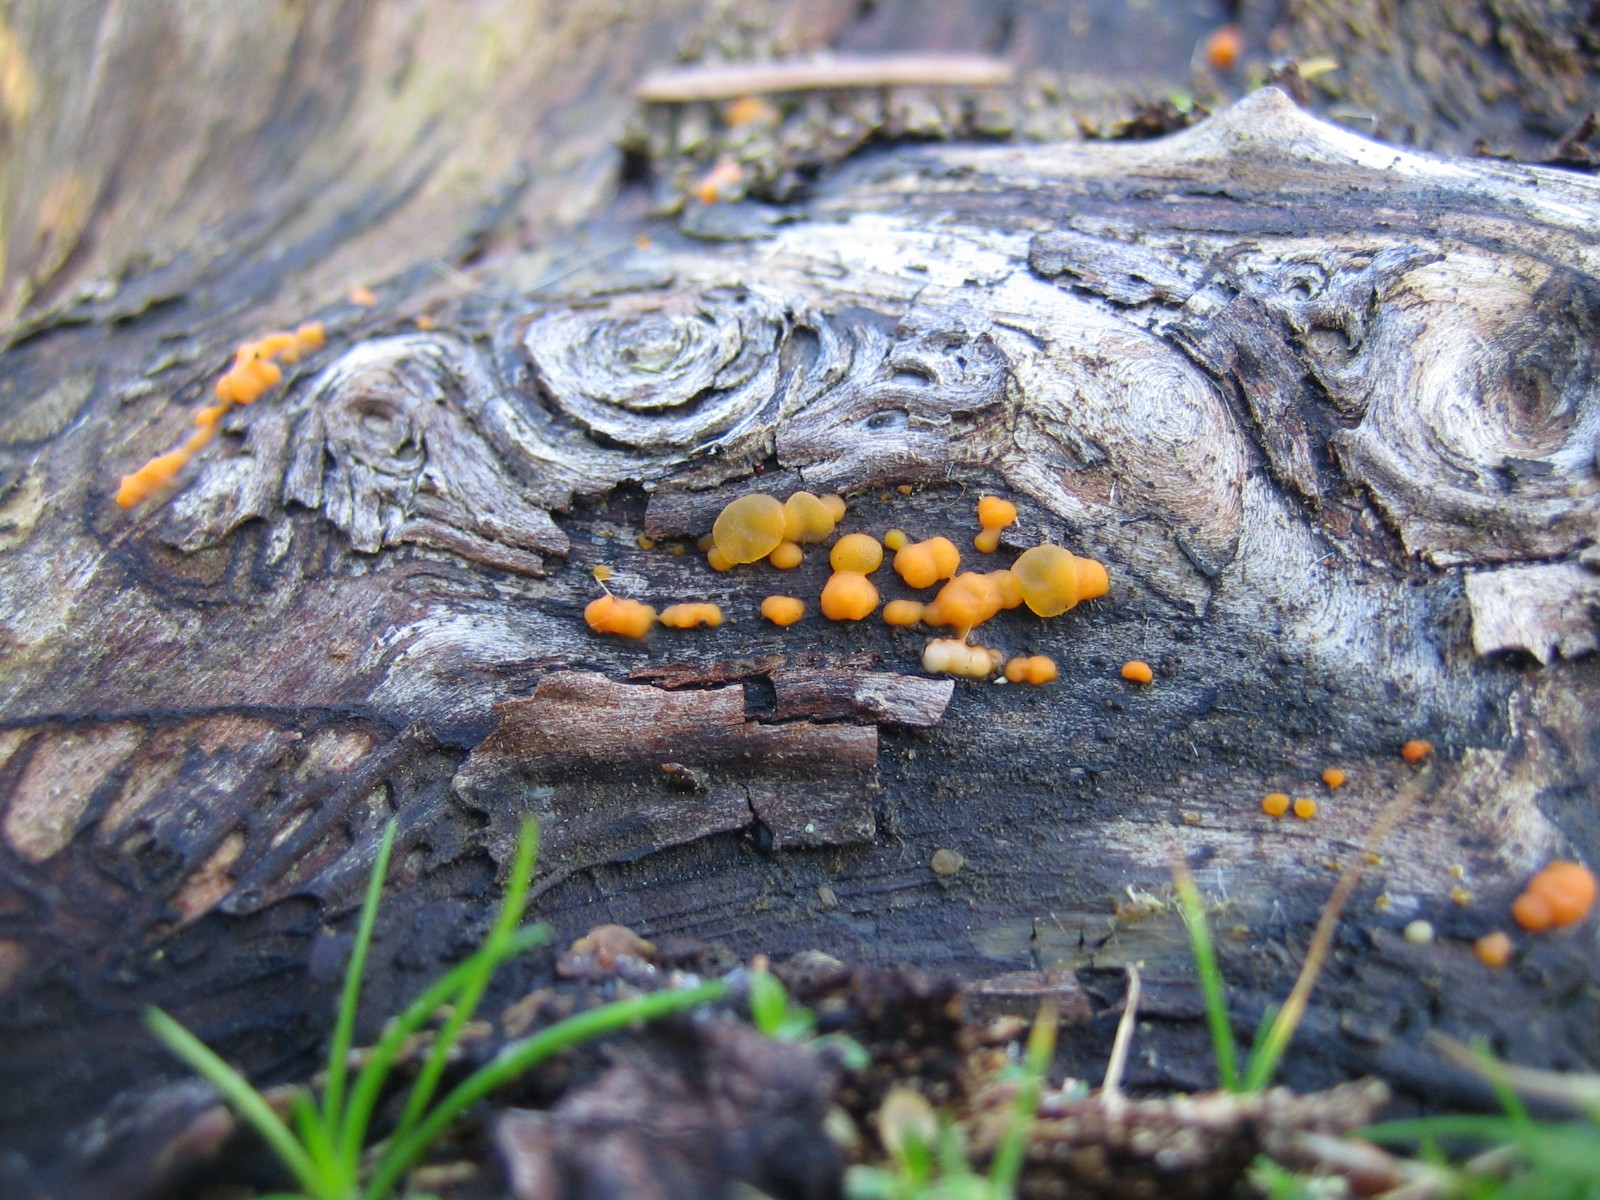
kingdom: Fungi
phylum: Basidiomycota
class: Dacrymycetes
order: Dacrymycetales
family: Dacrymycetaceae
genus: Dacrymyces
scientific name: Dacrymyces stillatus
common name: almindelig tåresvamp
